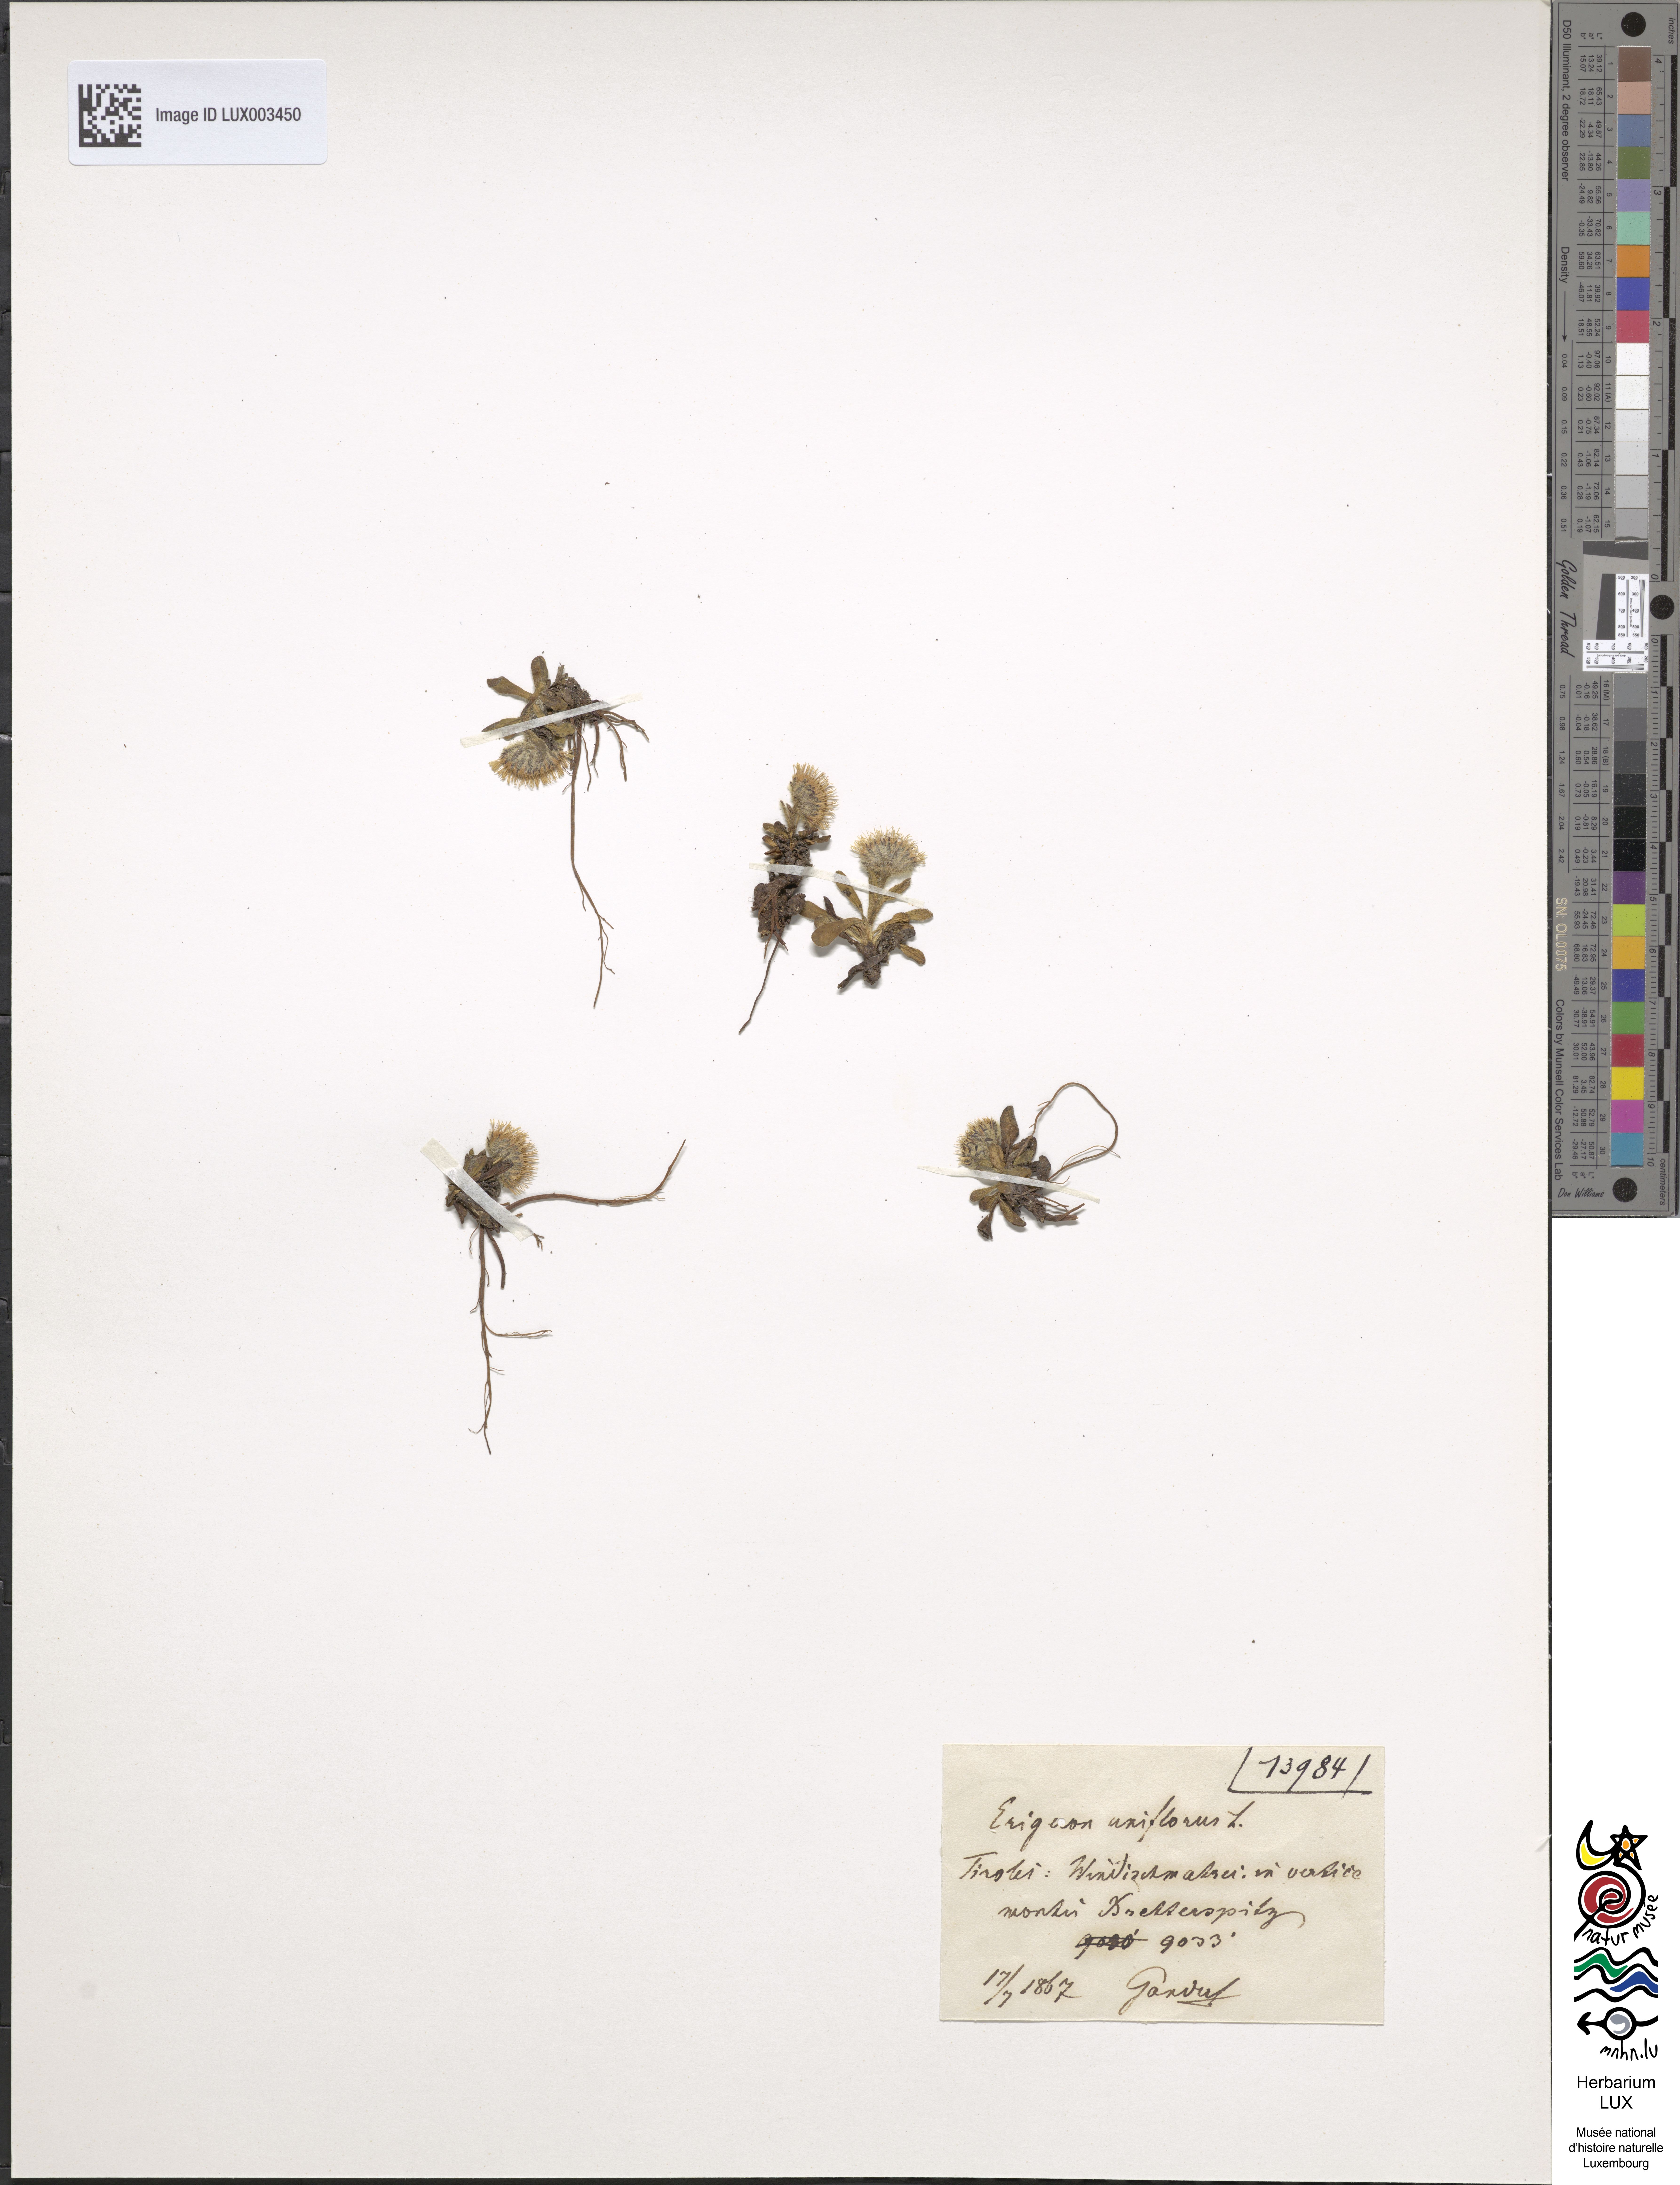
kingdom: Plantae
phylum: Tracheophyta
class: Magnoliopsida
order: Asterales
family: Asteraceae
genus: Erigeron
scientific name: Erigeron uniflorus
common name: Northern daisy
